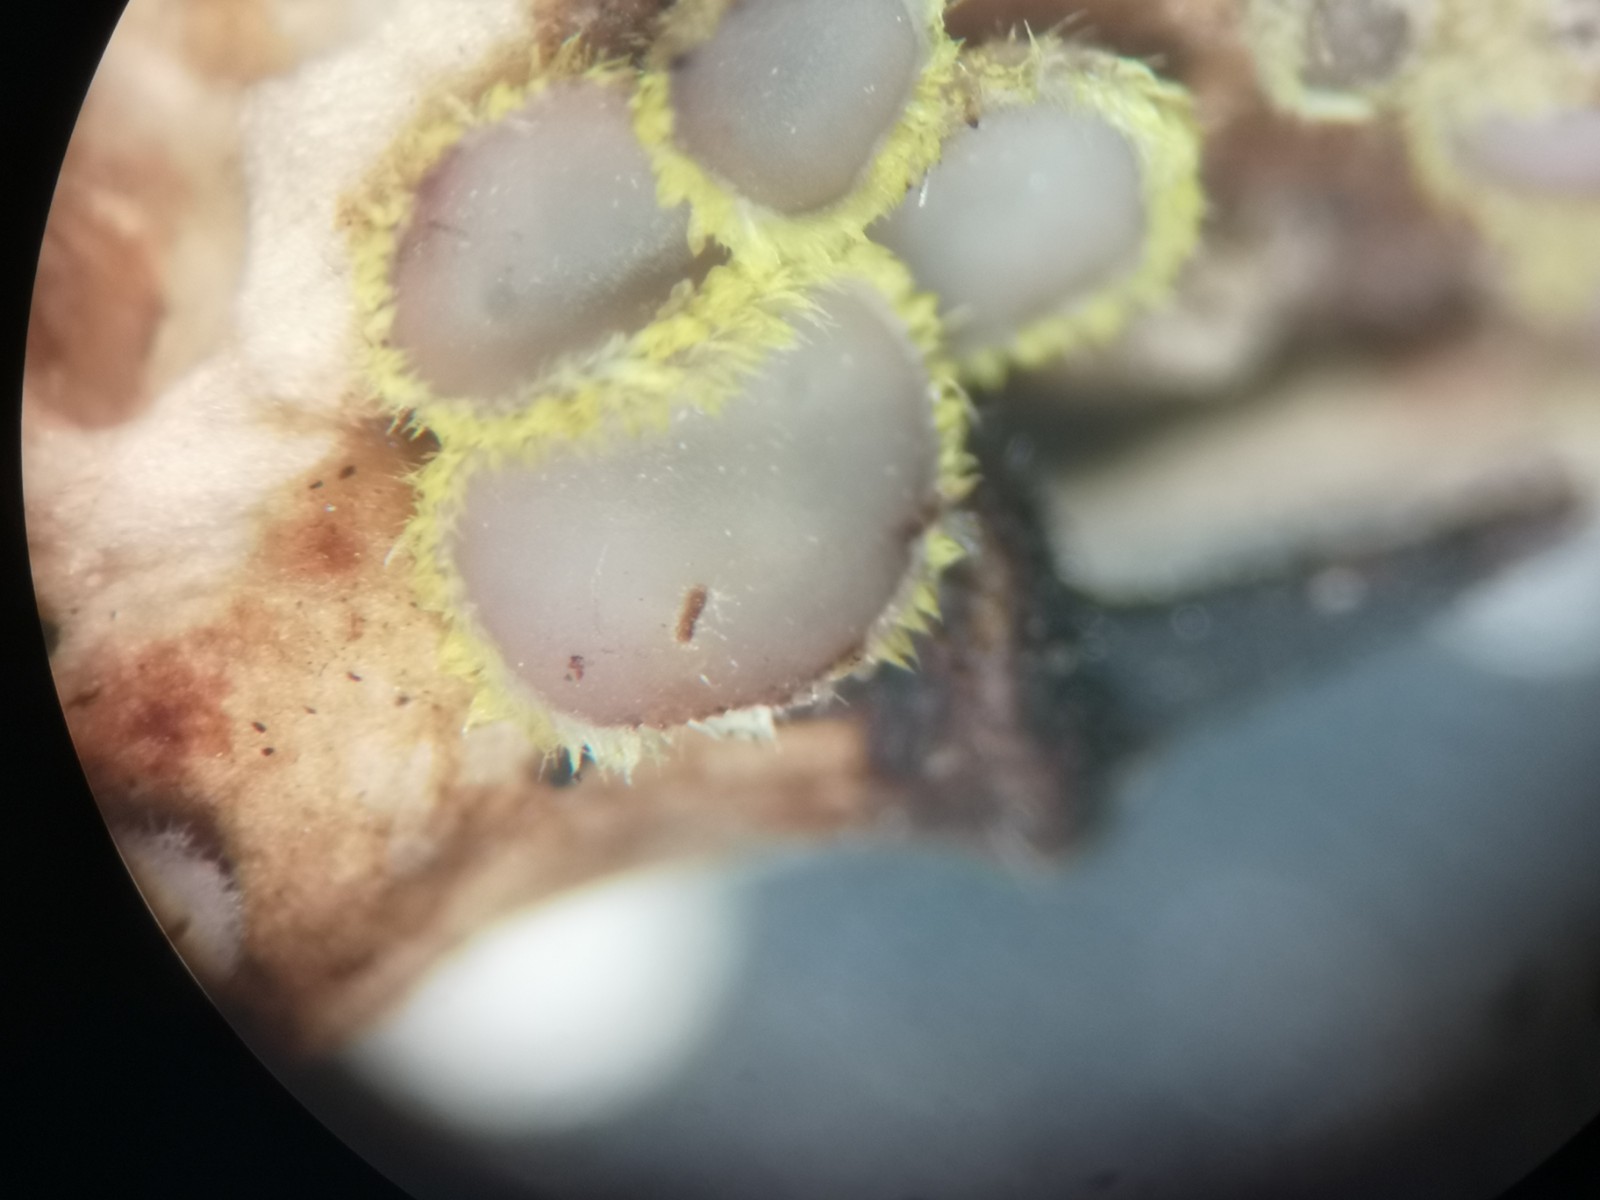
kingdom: Fungi
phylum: Ascomycota
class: Leotiomycetes
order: Helotiales
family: Lachnaceae
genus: Lachnum
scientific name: Lachnum sulphureum
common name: svovlhåret frynseskive
